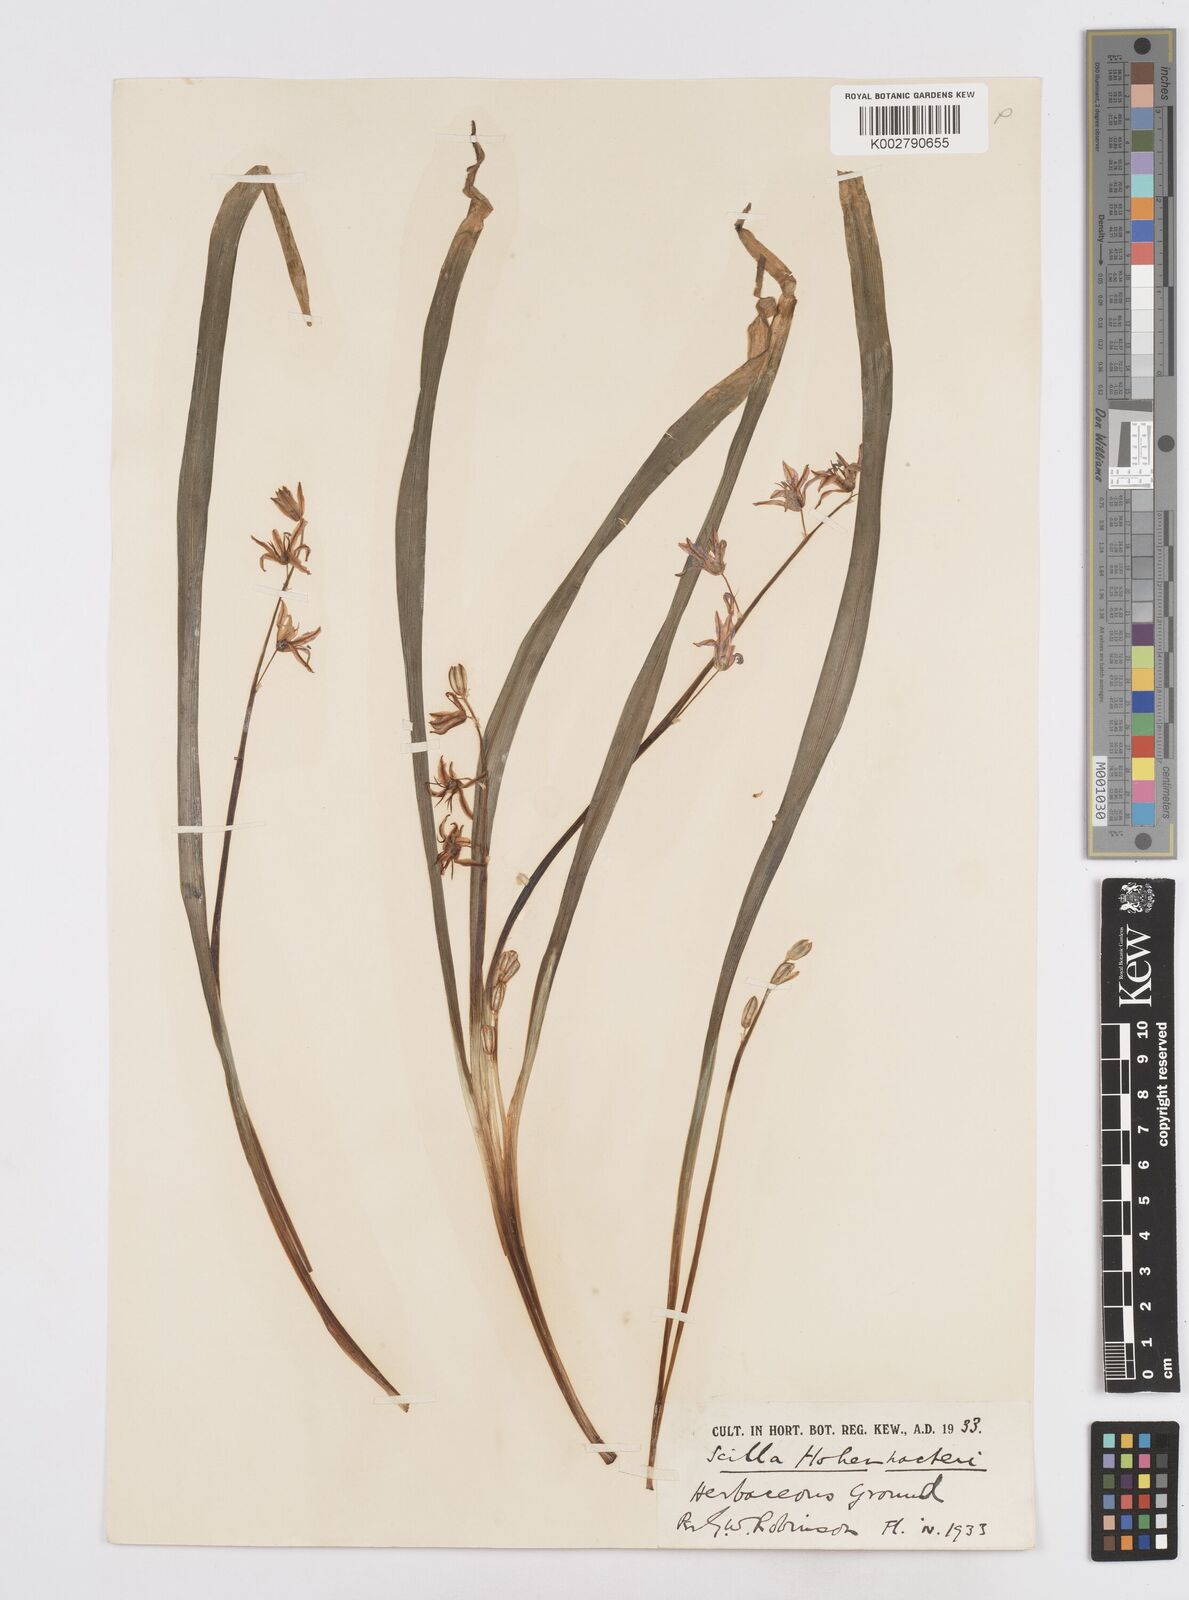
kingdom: Plantae
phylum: Tracheophyta
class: Liliopsida
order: Asparagales
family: Asparagaceae
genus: Scilla
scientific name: Scilla cilicica
